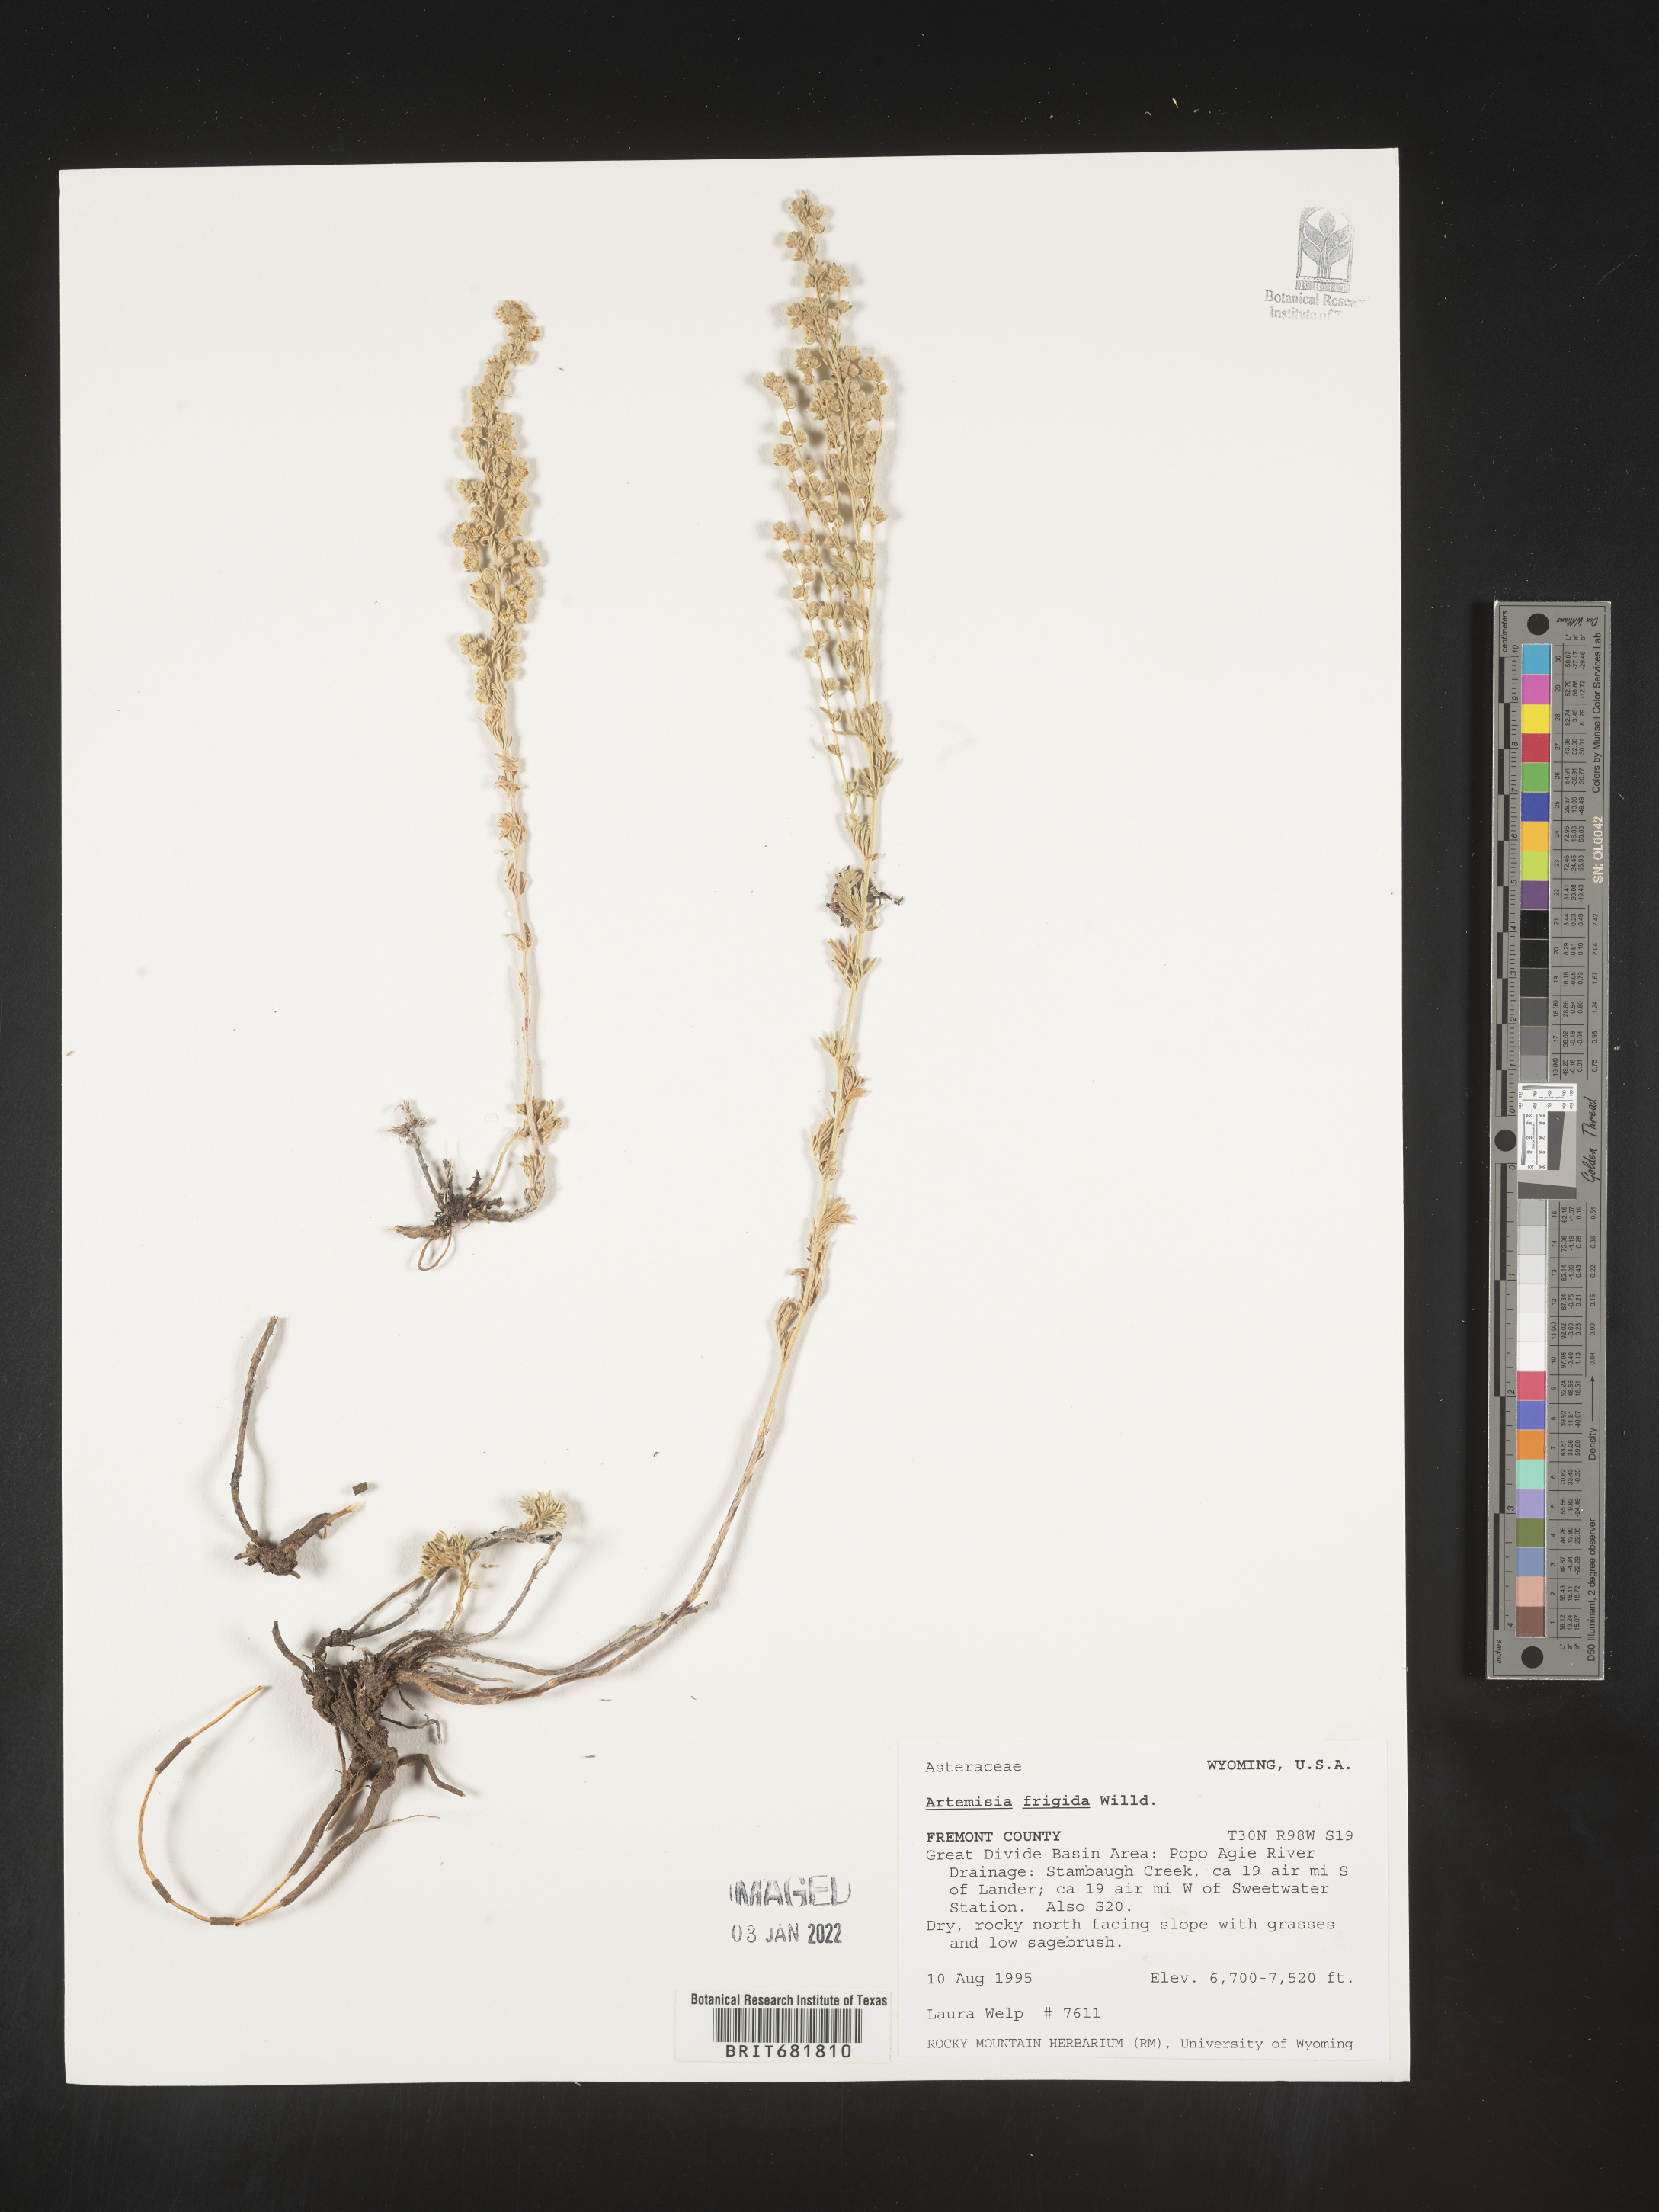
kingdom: Plantae
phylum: Tracheophyta
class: Magnoliopsida
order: Asterales
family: Asteraceae
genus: Artemisia
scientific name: Artemisia frigida
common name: Prairie sagewort
